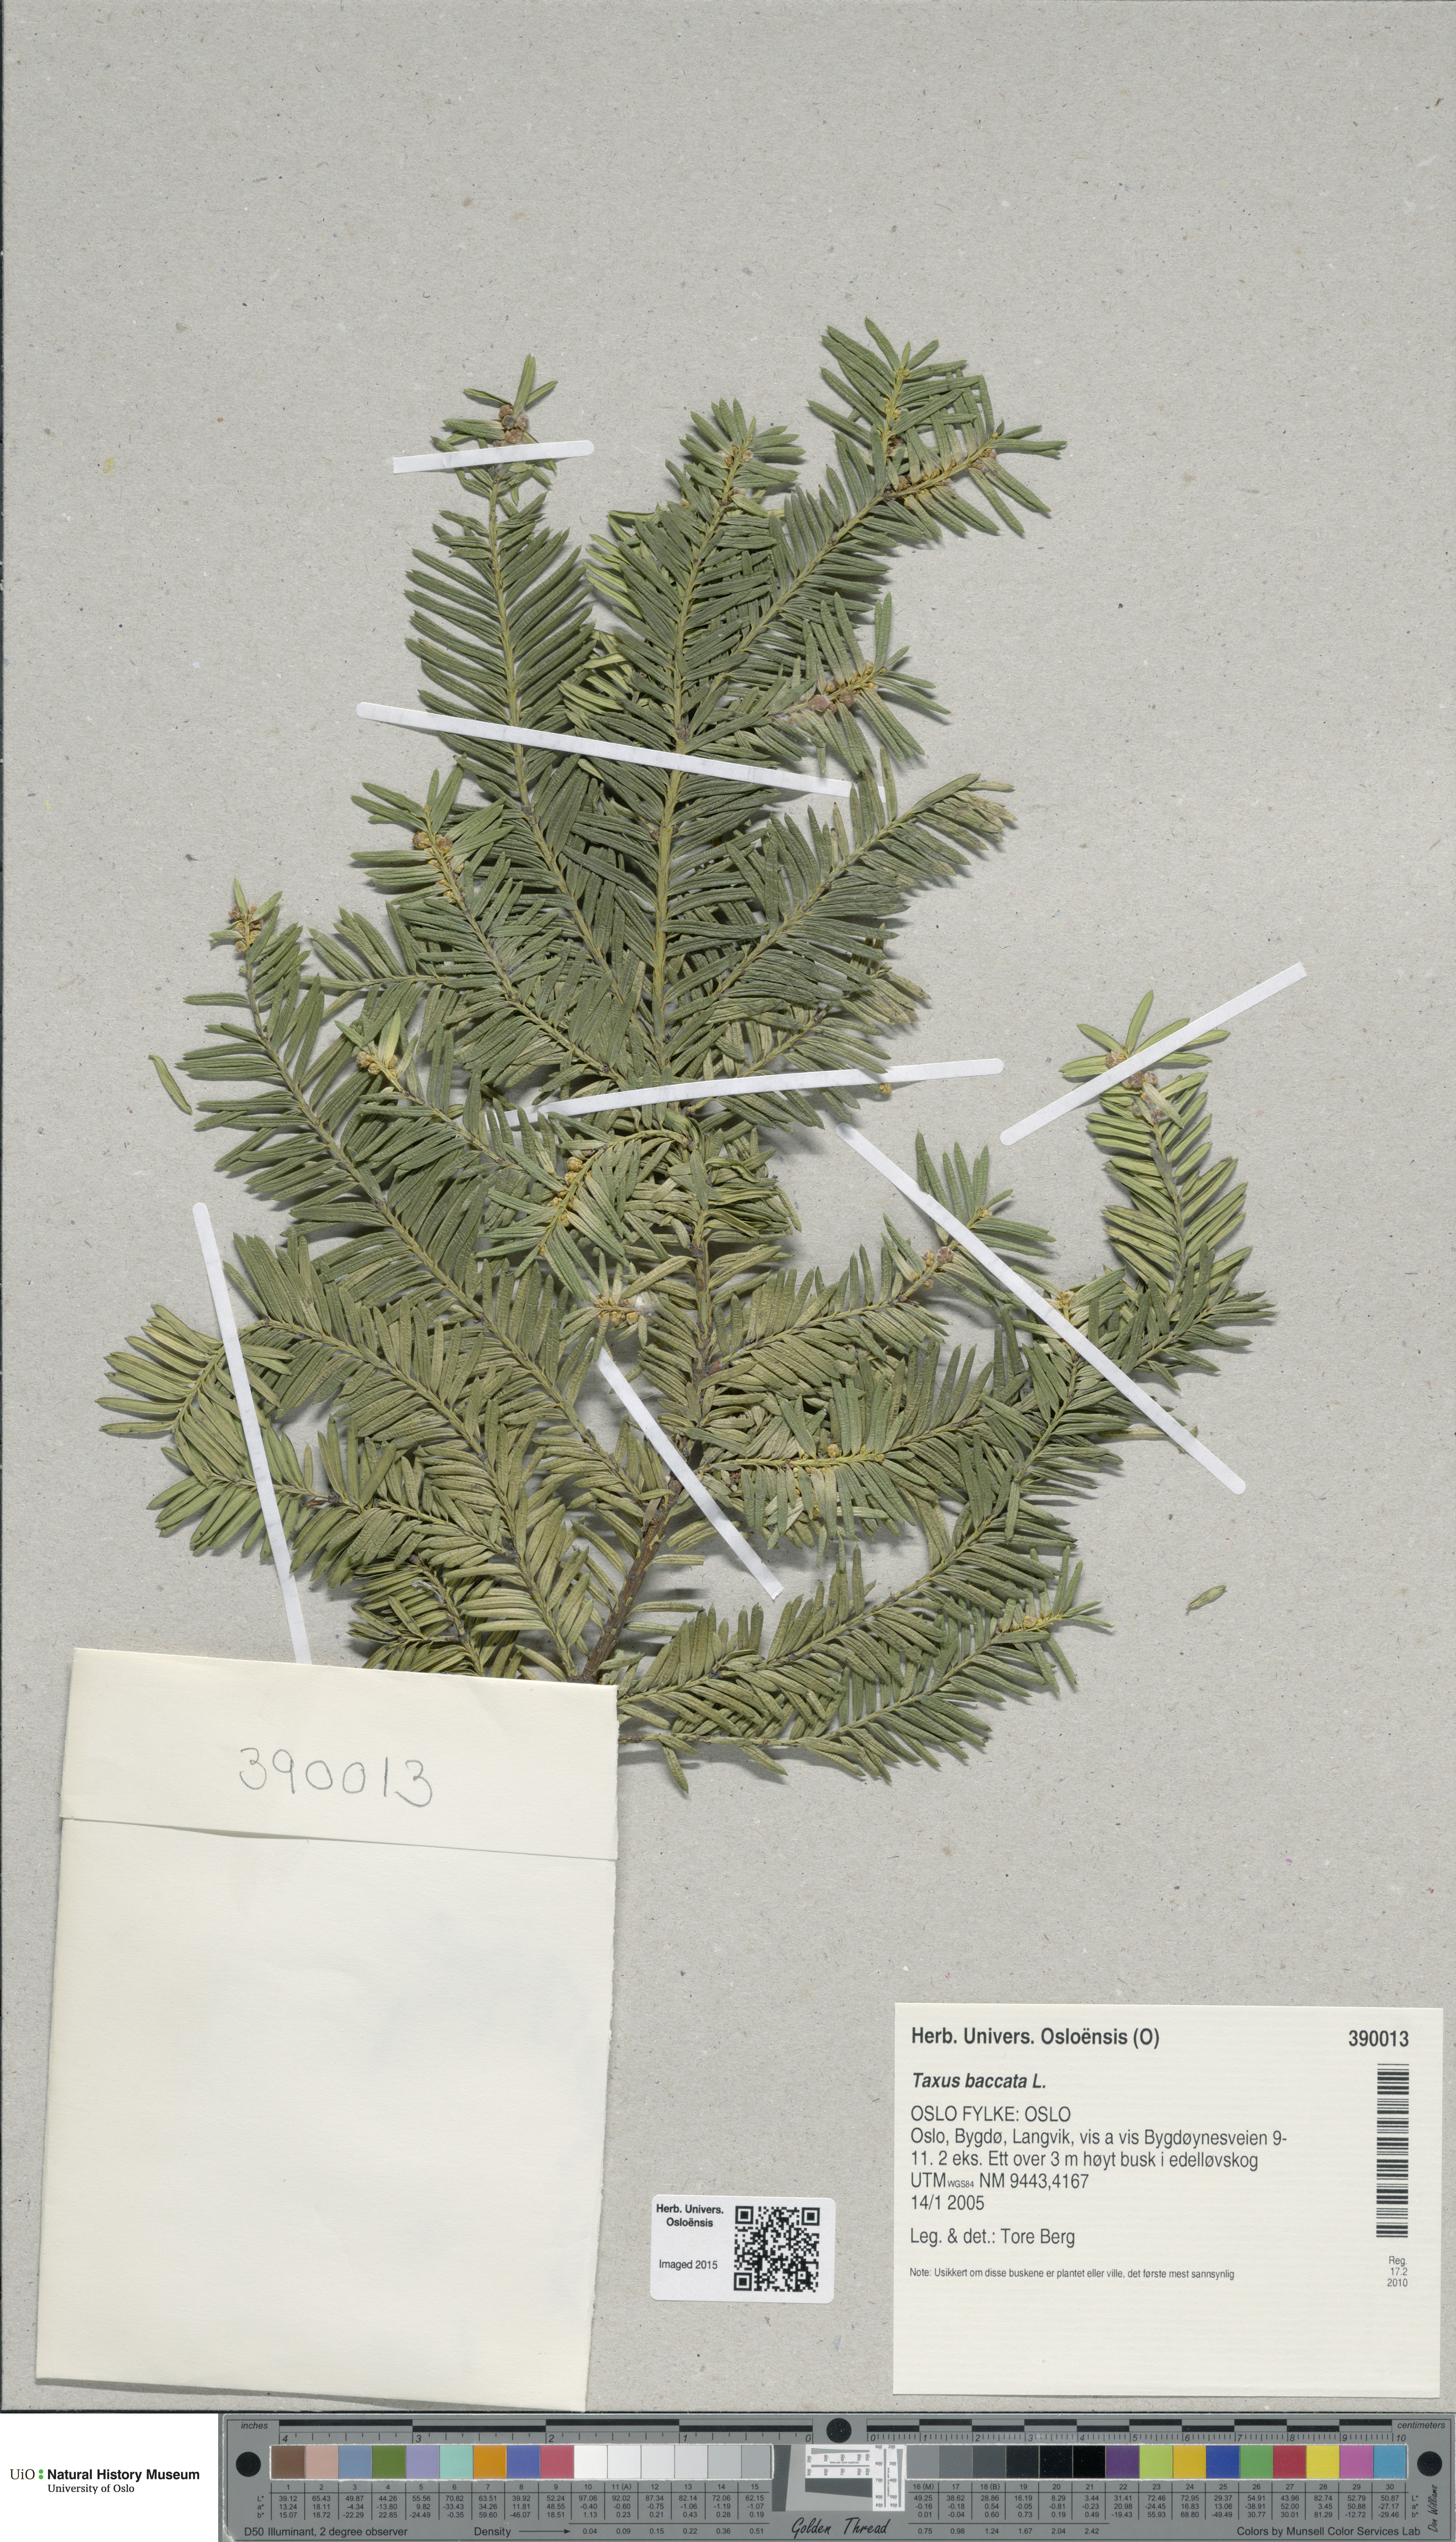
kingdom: Plantae
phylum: Tracheophyta
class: Pinopsida
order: Pinales
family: Taxaceae
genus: Taxus
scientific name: Taxus baccata
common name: Yew
